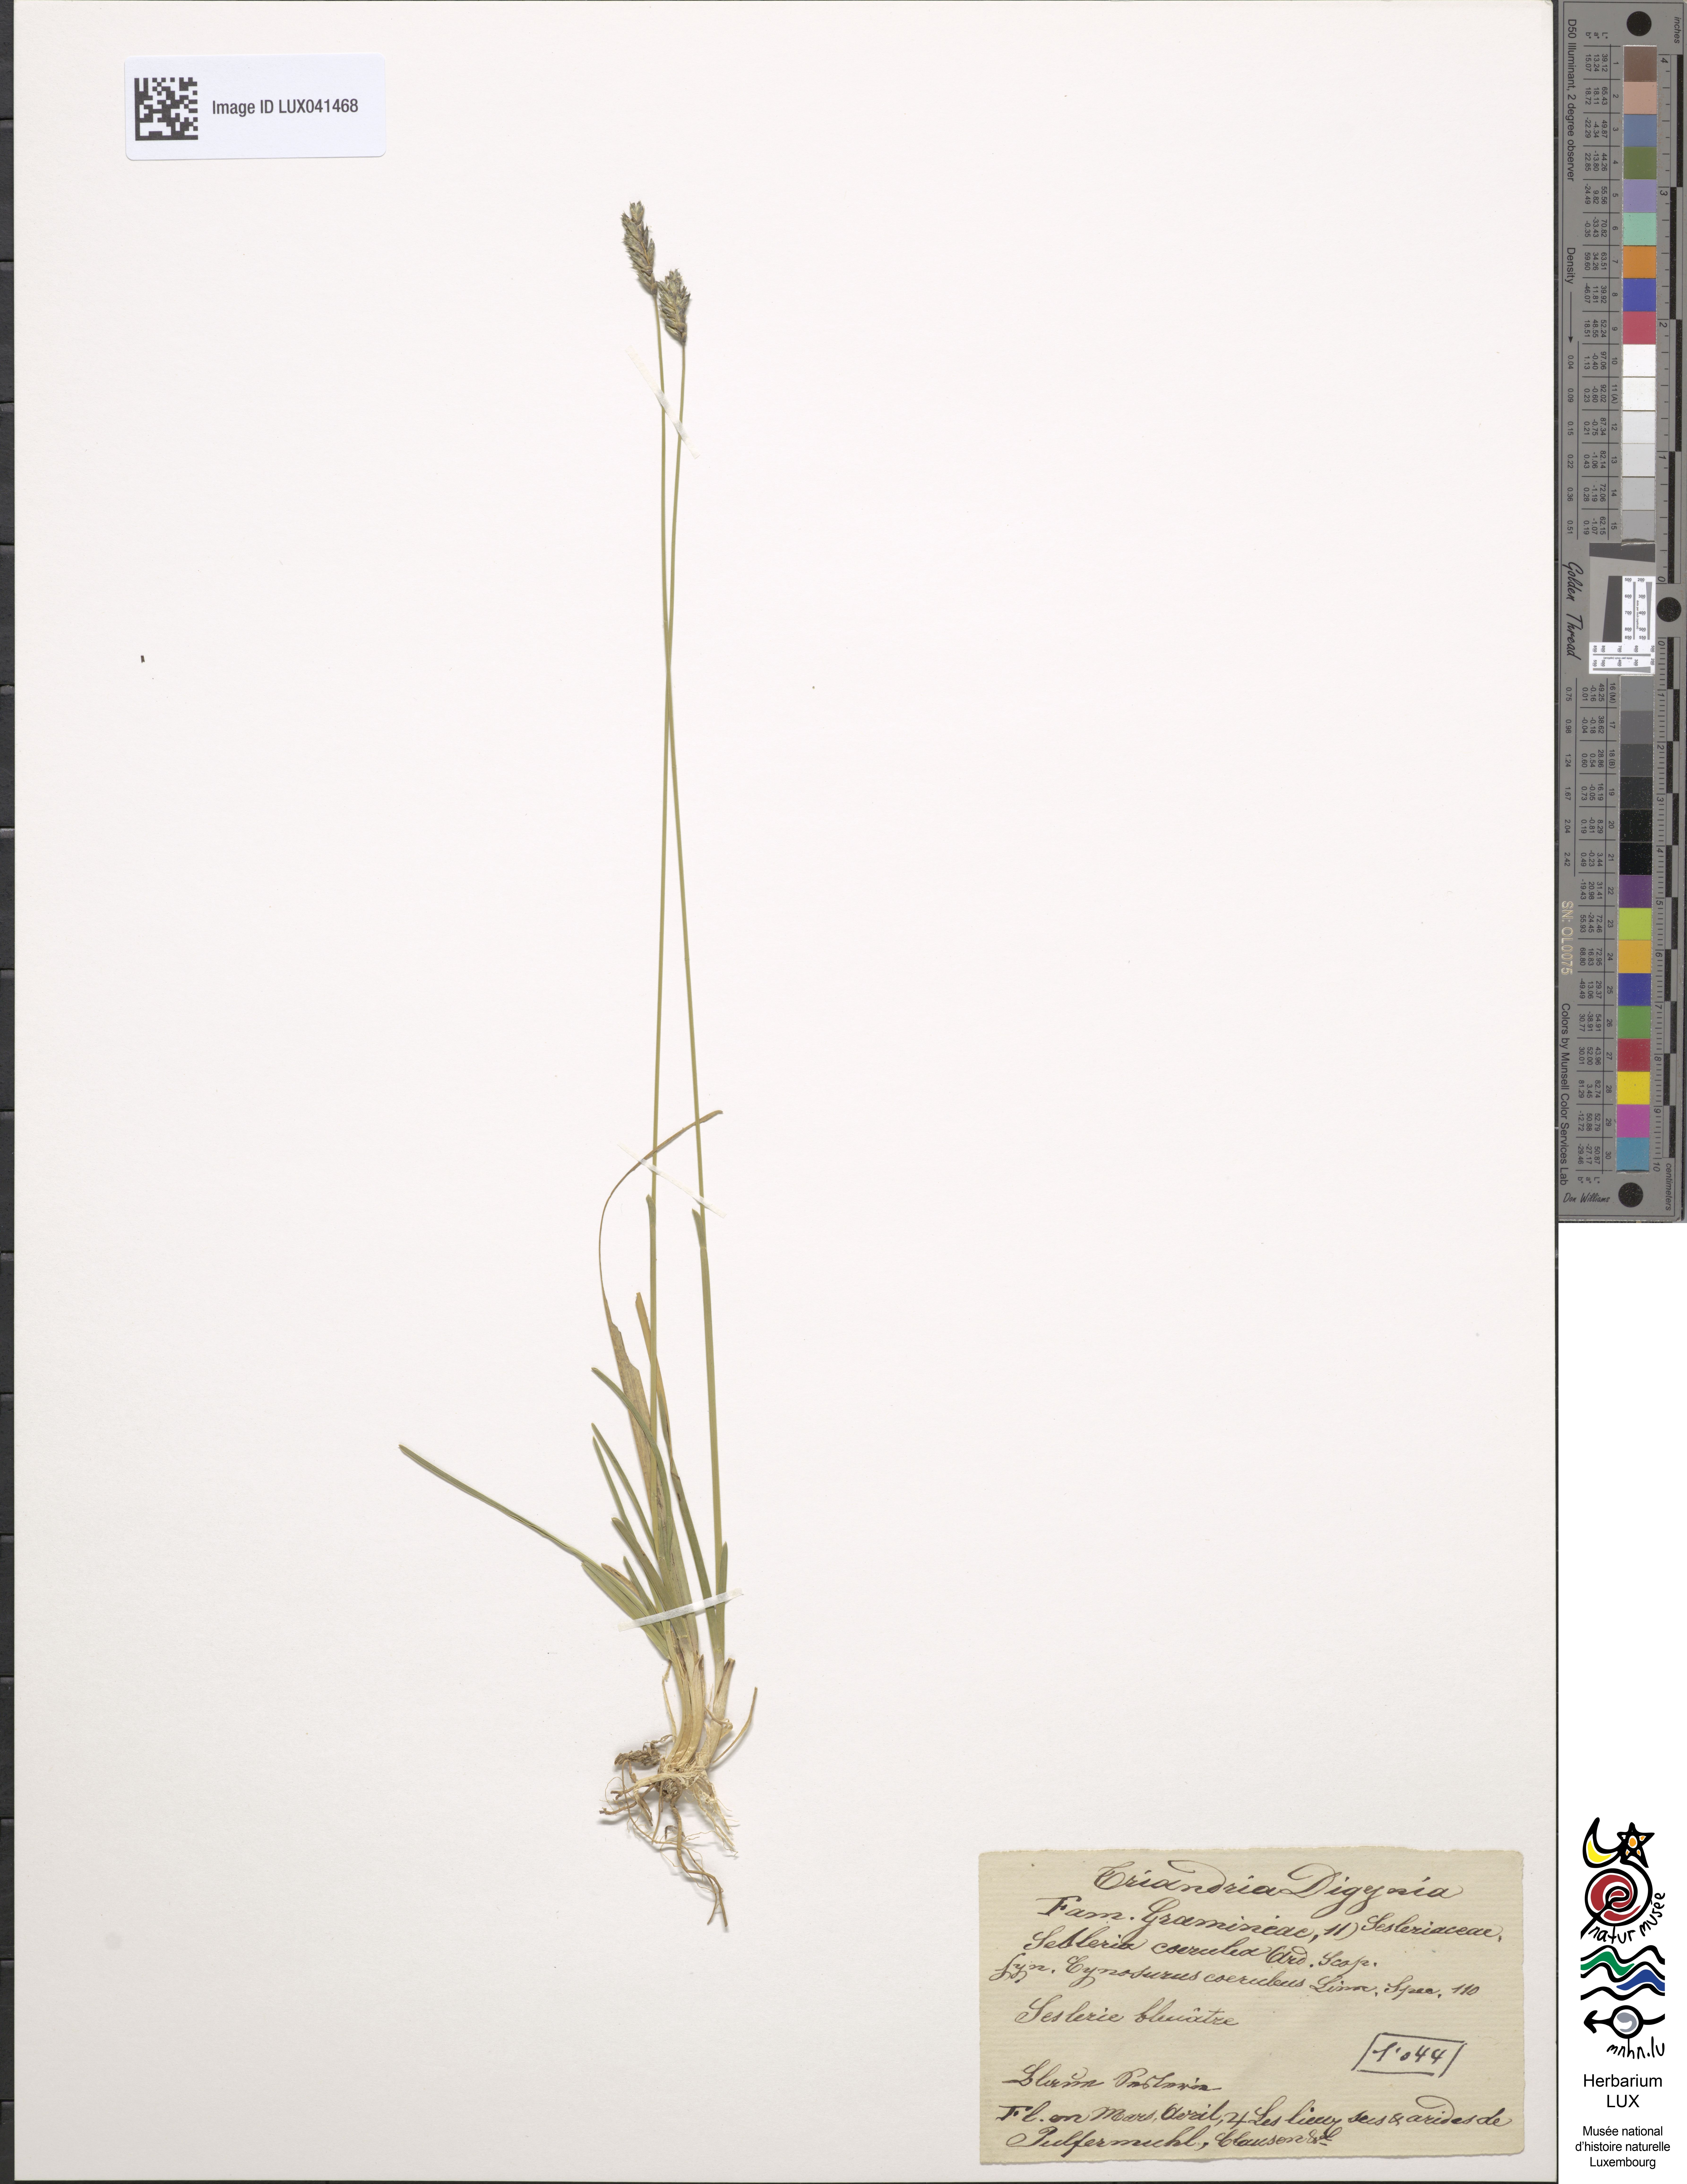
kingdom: Plantae
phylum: Tracheophyta
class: Liliopsida
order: Poales
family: Poaceae
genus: Sesleria
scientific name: Sesleria albicans
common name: Blue moor-grass
